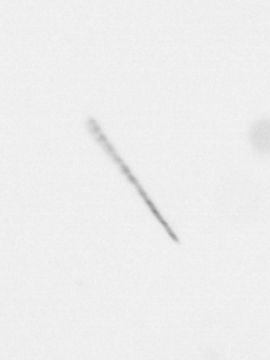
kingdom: Chromista
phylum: Ochrophyta
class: Bacillariophyceae
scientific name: Bacillariophyceae
